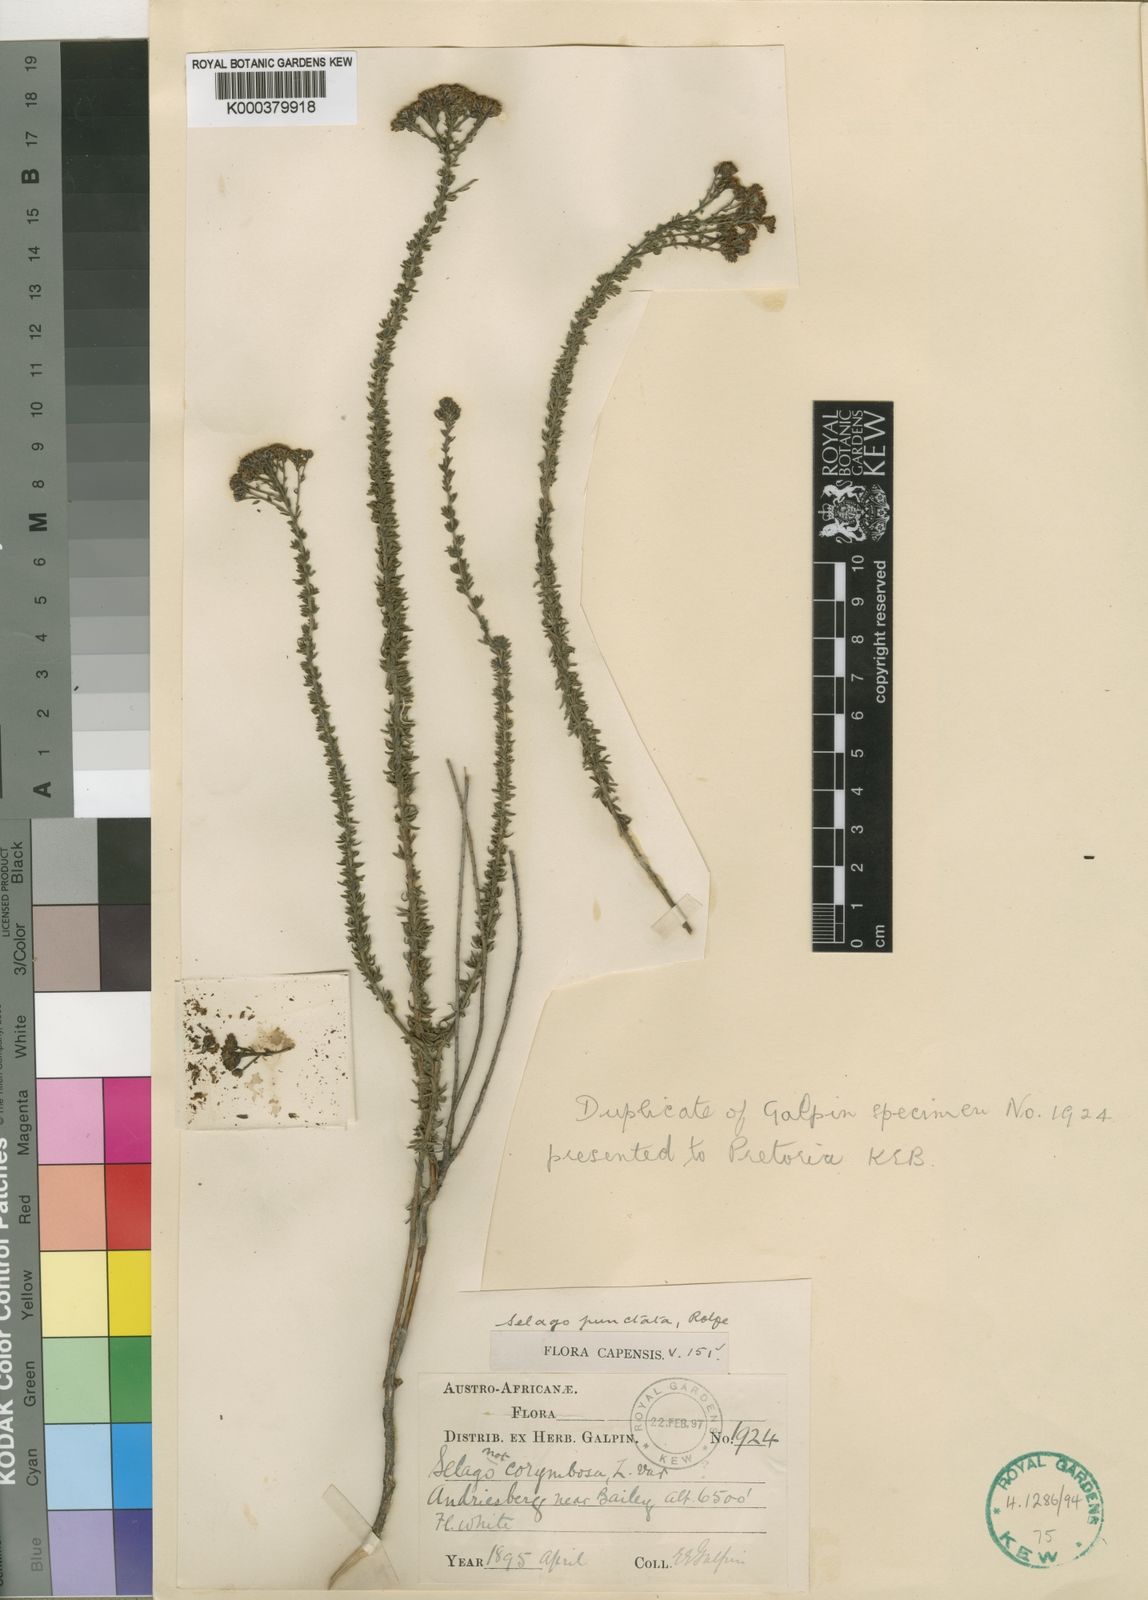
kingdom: Plantae
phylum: Tracheophyta
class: Magnoliopsida
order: Lamiales
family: Scrophulariaceae
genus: Selago
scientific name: Selago punctata
